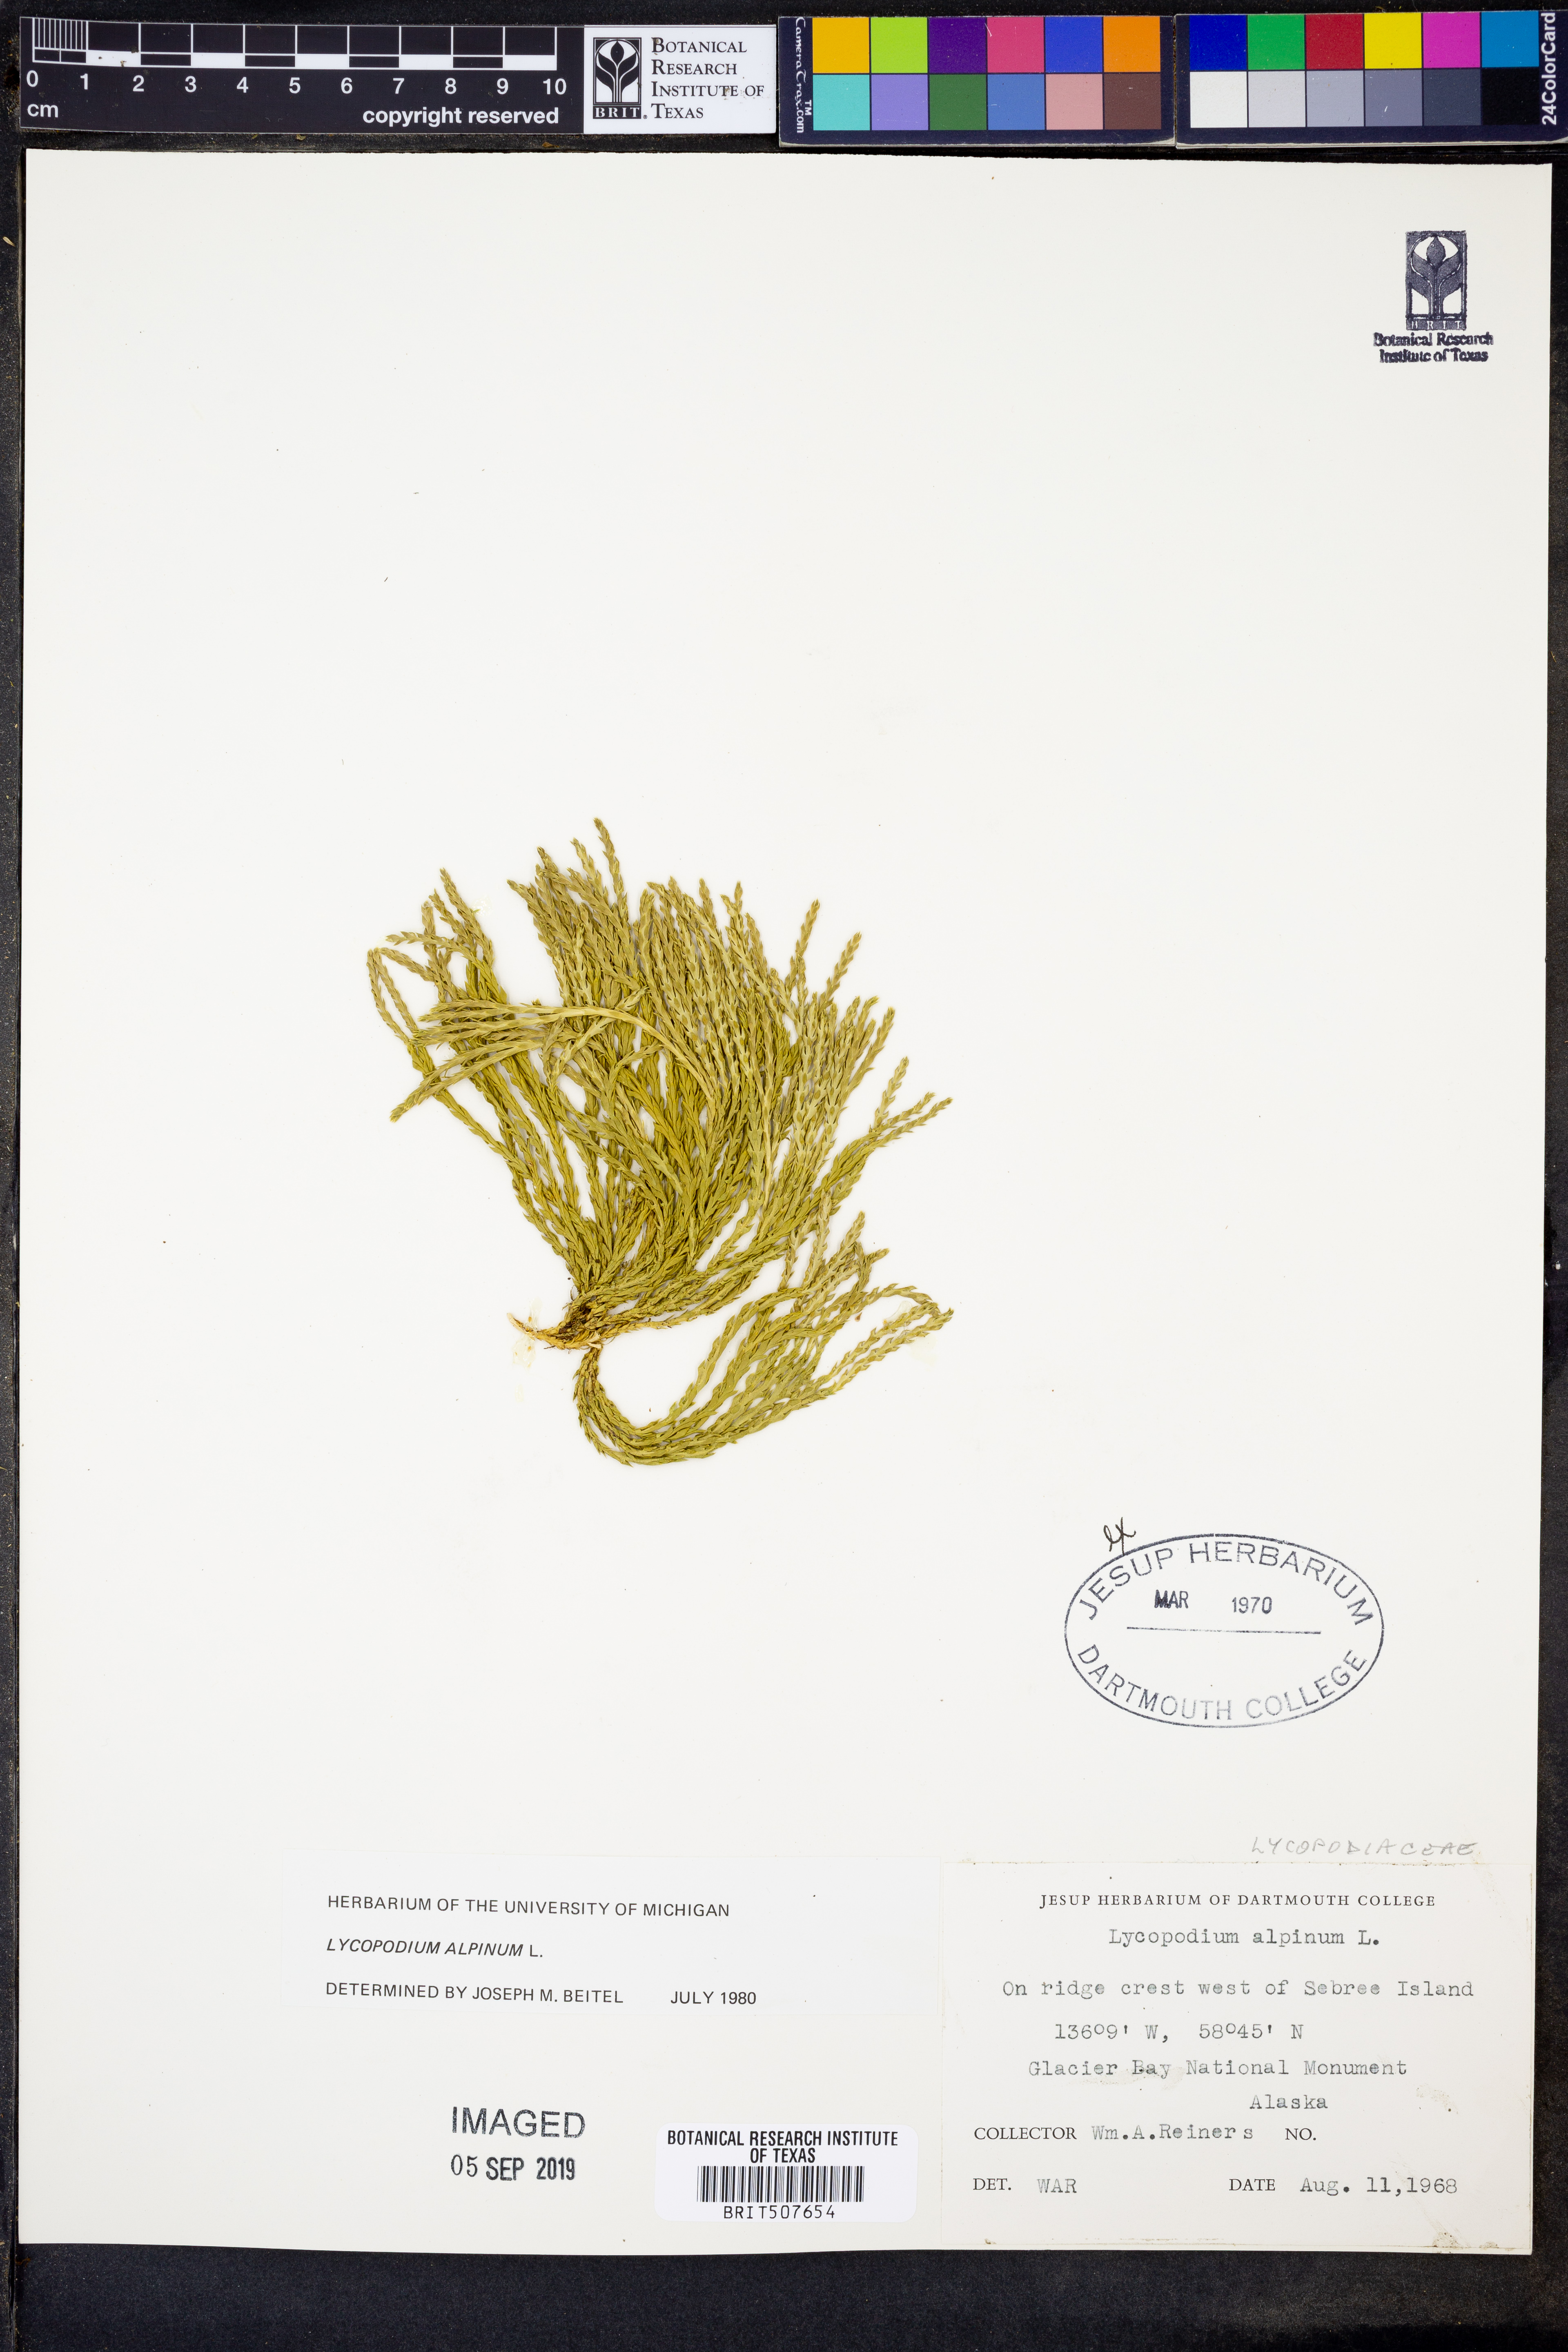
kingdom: Plantae
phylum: Tracheophyta
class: Lycopodiopsida
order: Lycopodiales
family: Lycopodiaceae
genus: Diphasiastrum
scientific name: Diphasiastrum alpinum
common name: Alpine clubmoss
